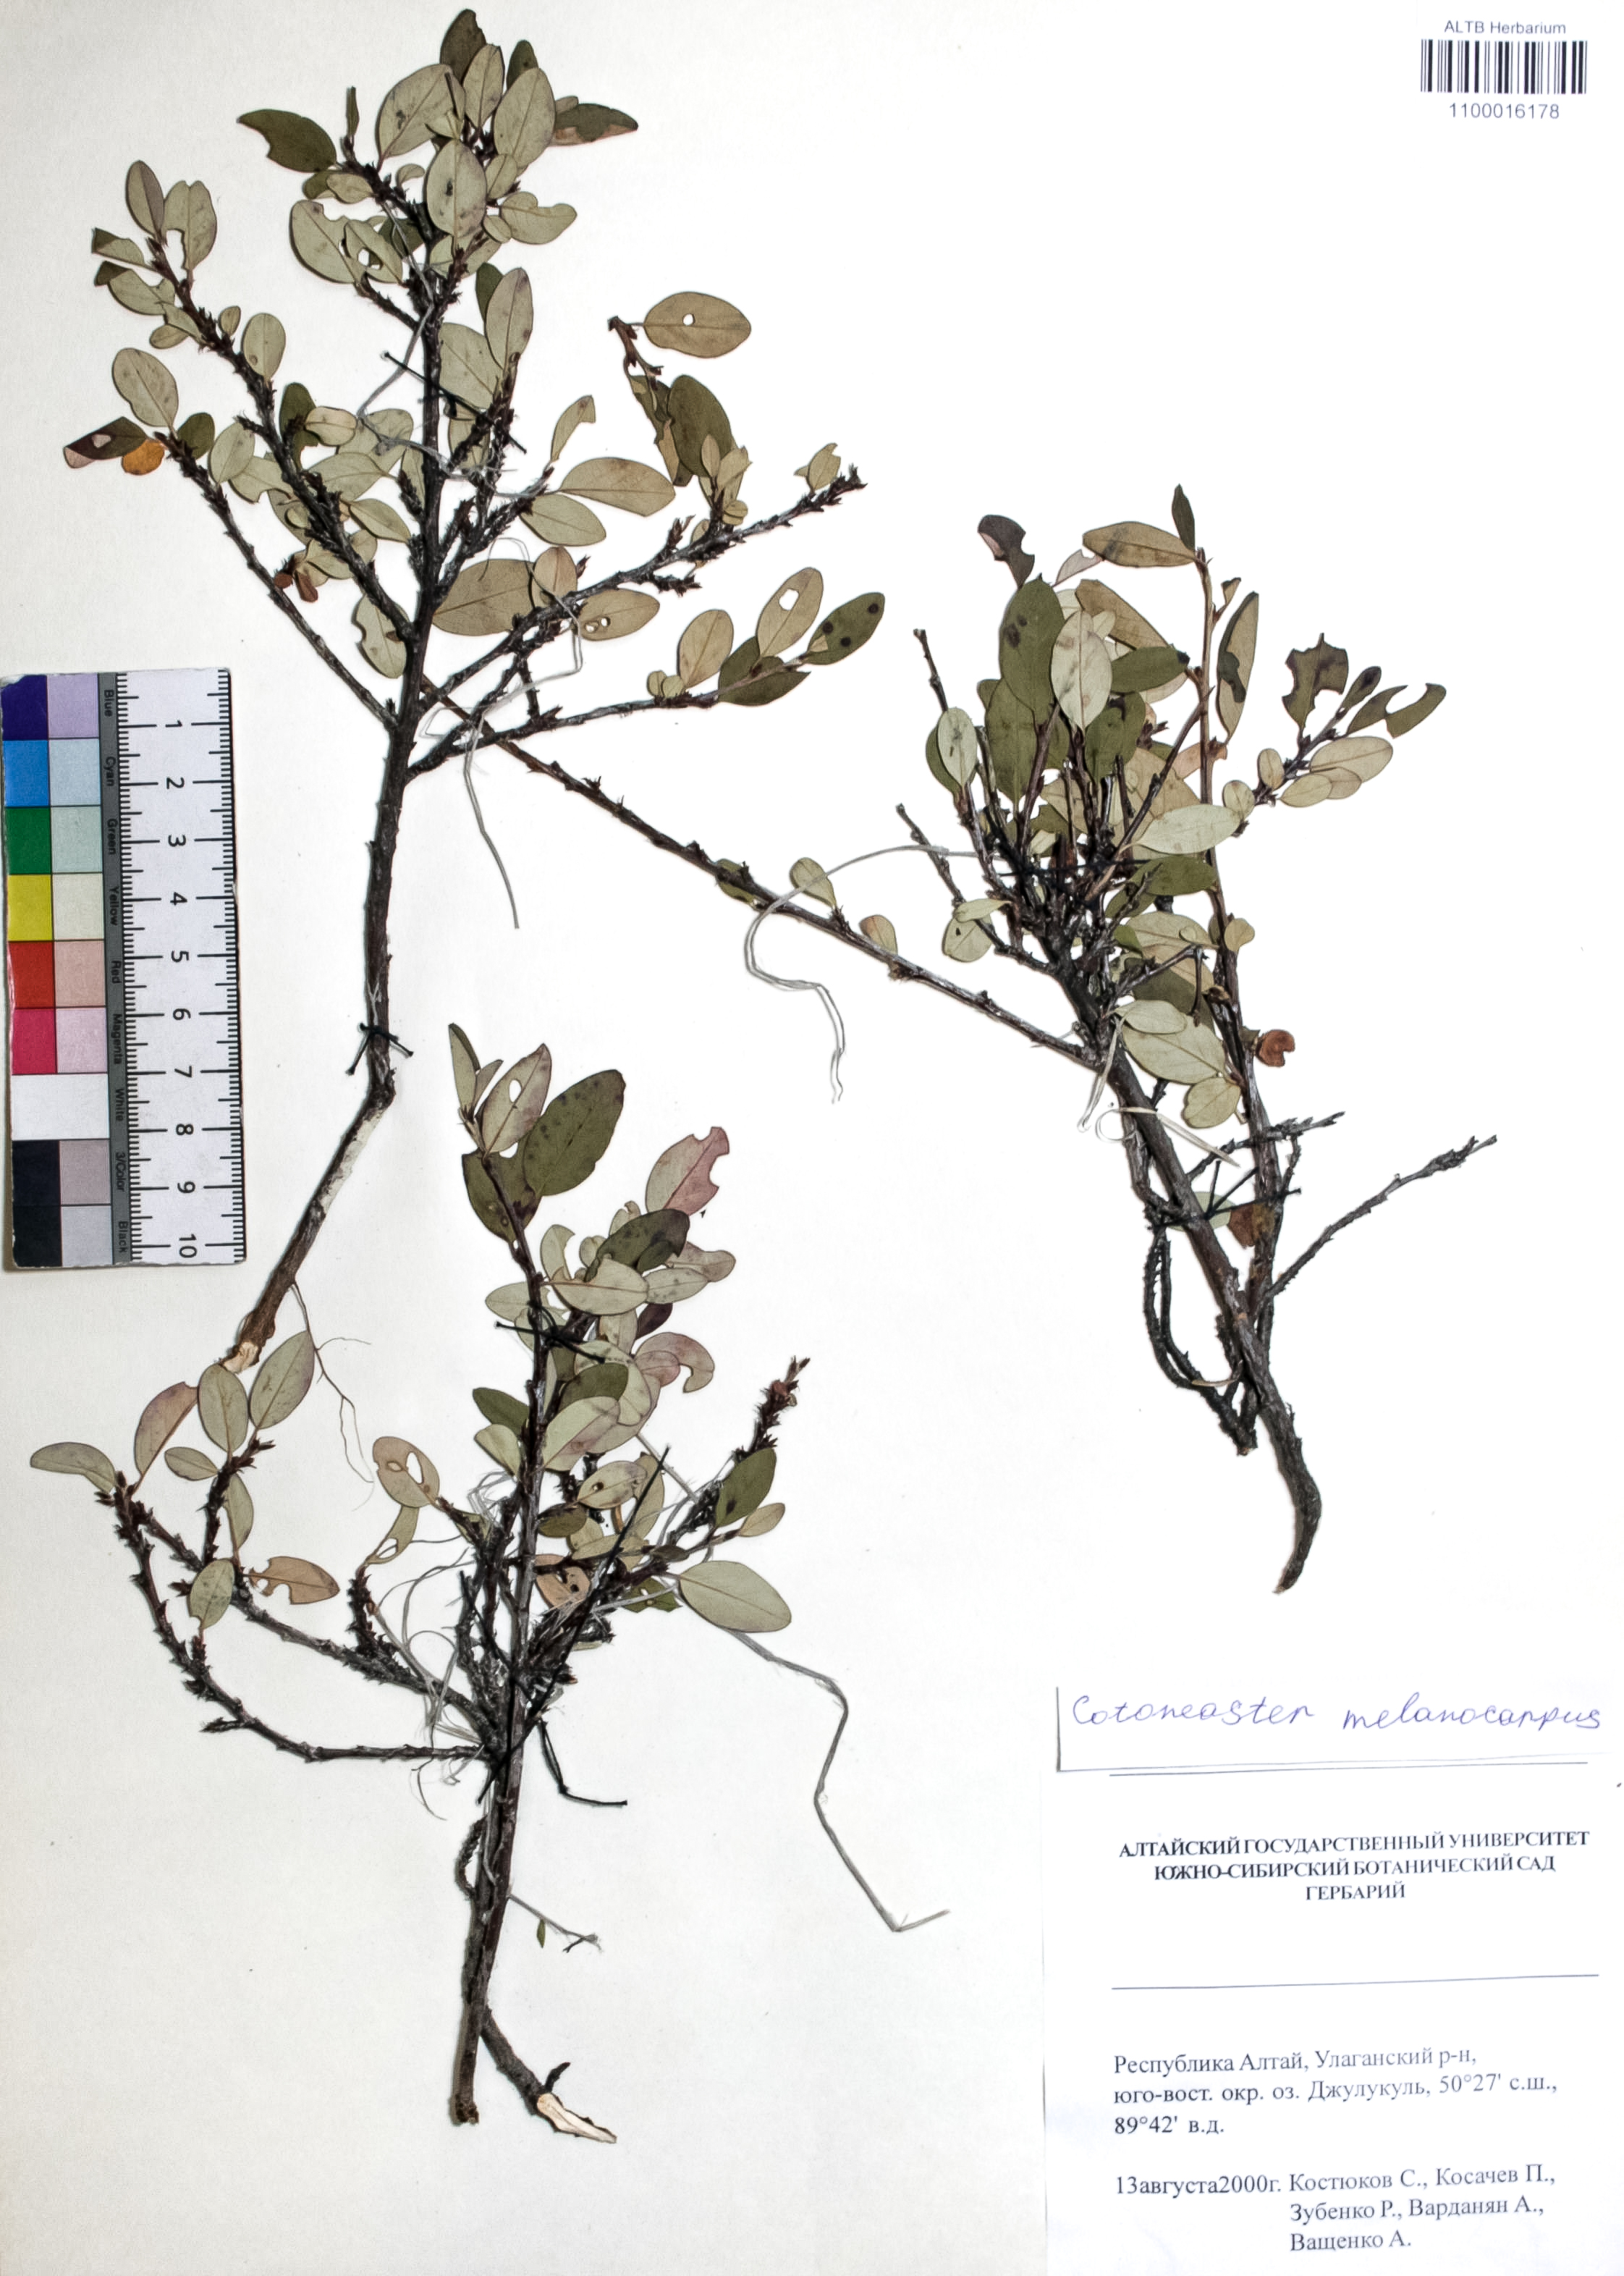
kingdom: Plantae
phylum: Tracheophyta
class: Magnoliopsida
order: Rosales
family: Rosaceae
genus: Cotoneaster
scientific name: Cotoneaster niger
